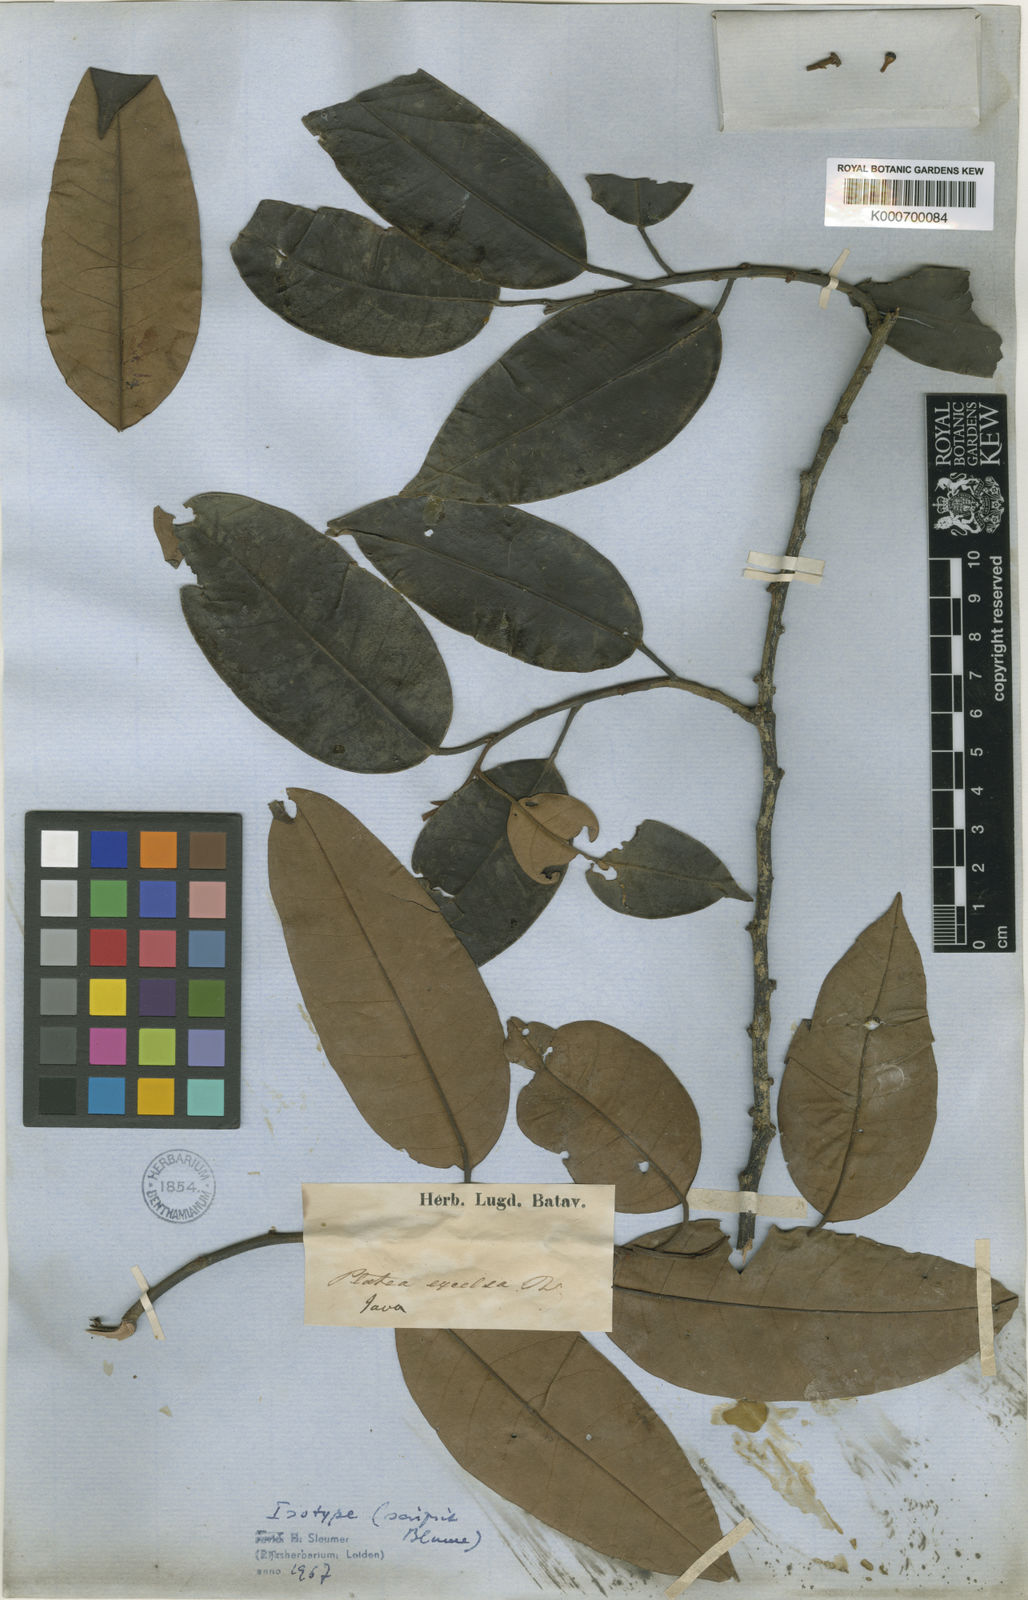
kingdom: Plantae
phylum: Tracheophyta
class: Magnoliopsida
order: Metteniusales
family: Metteniusaceae
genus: Platea
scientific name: Platea excelsa
